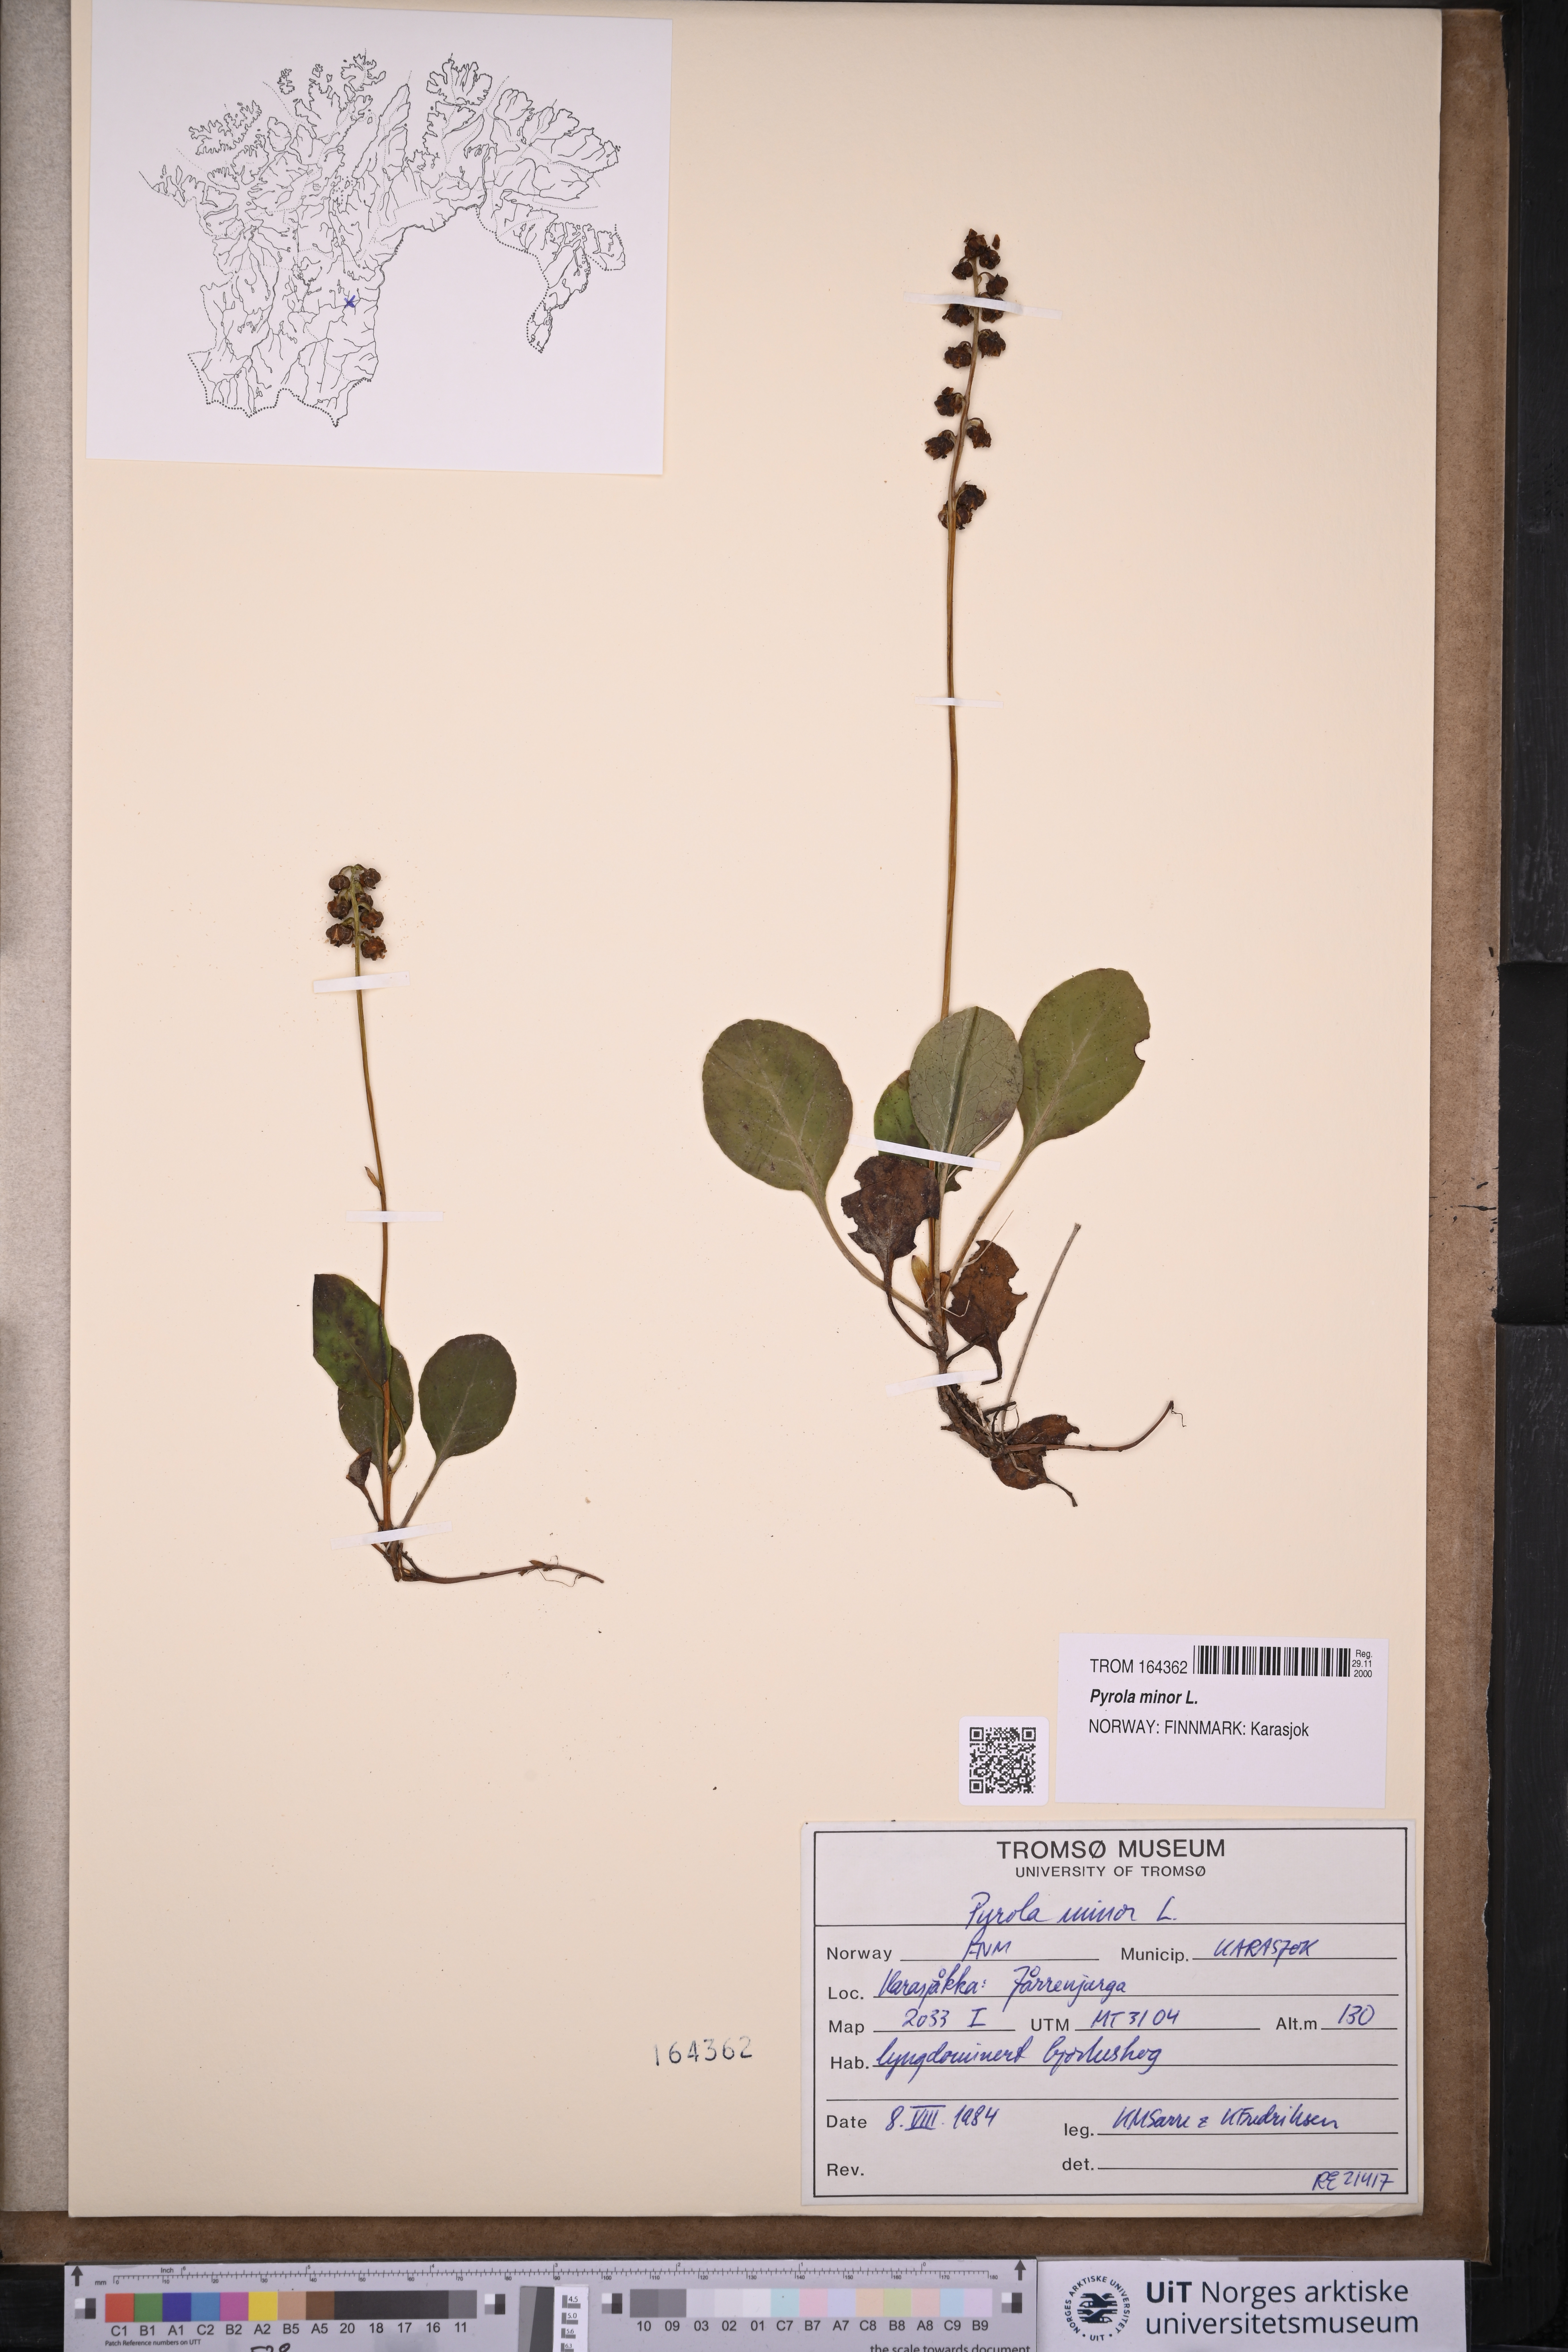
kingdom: Plantae
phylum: Tracheophyta
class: Magnoliopsida
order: Ericales
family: Ericaceae
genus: Pyrola
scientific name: Pyrola minor
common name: Common wintergreen
